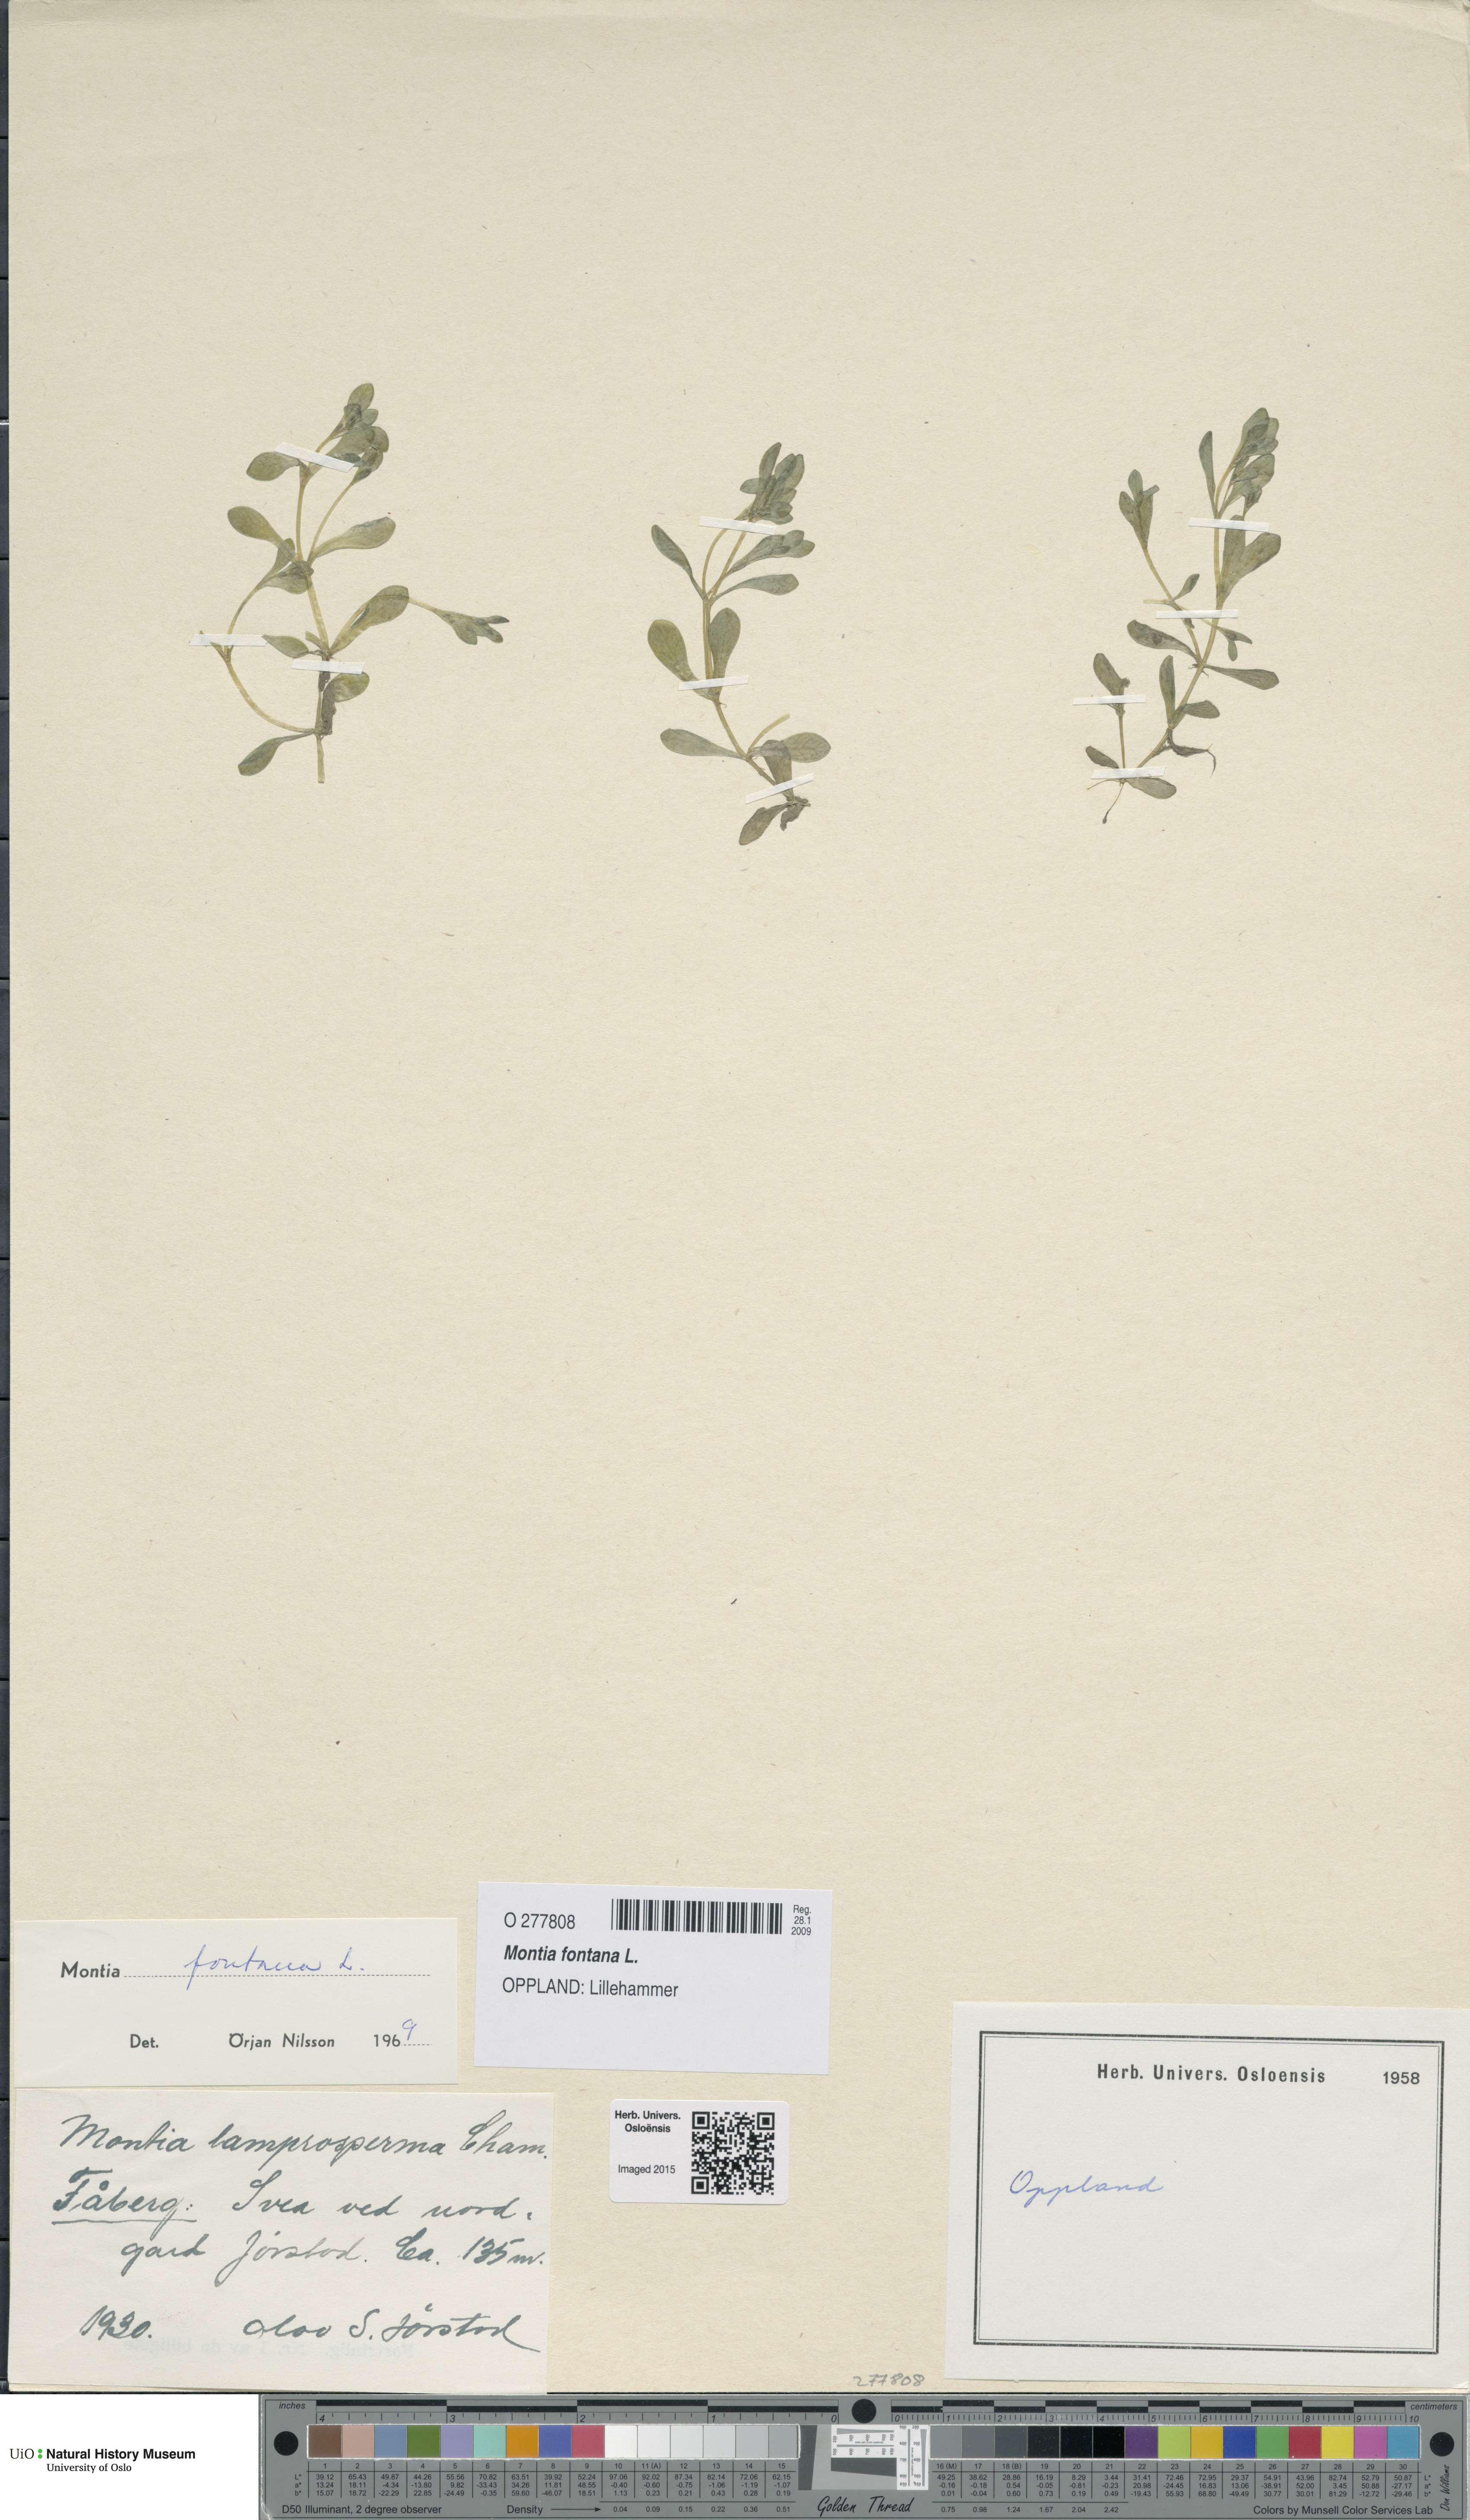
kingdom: Plantae
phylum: Tracheophyta
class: Magnoliopsida
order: Caryophyllales
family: Montiaceae
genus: Montia
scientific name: Montia fontana
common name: Blinks
